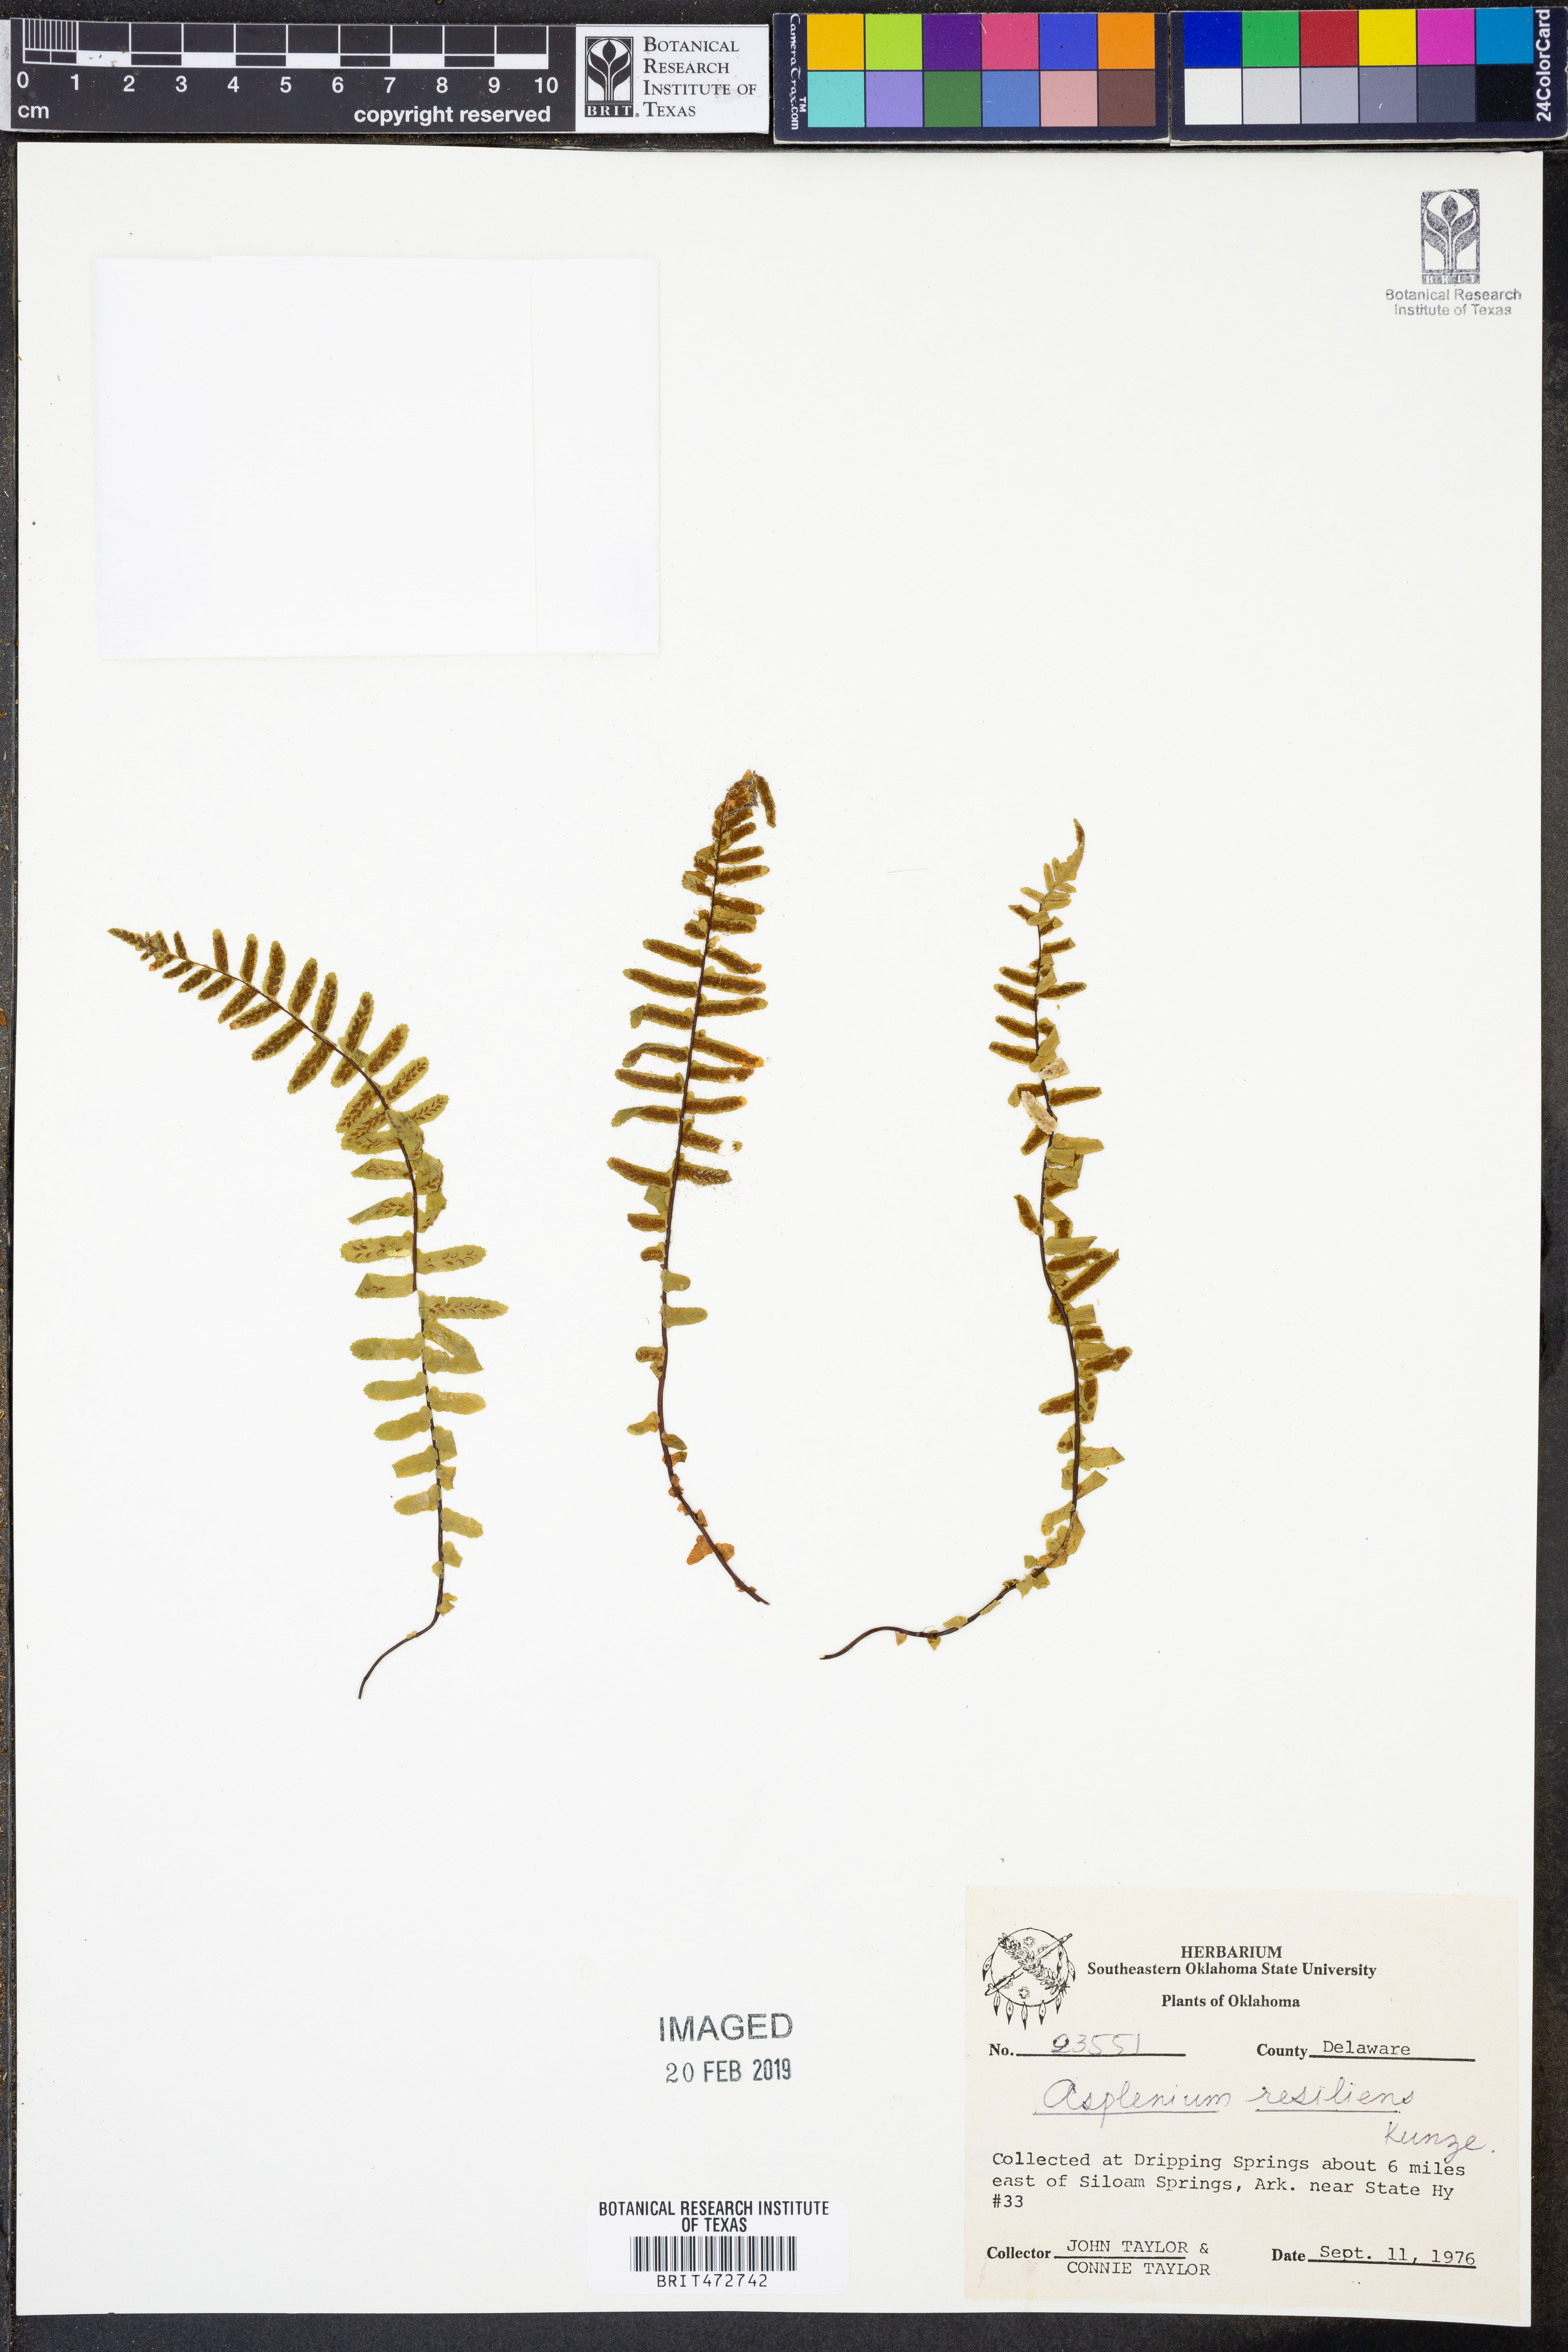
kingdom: Plantae
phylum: Tracheophyta
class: Polypodiopsida
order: Polypodiales
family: Aspleniaceae
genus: Asplenium
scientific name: Asplenium resiliens
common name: Blackstem spleenwort
